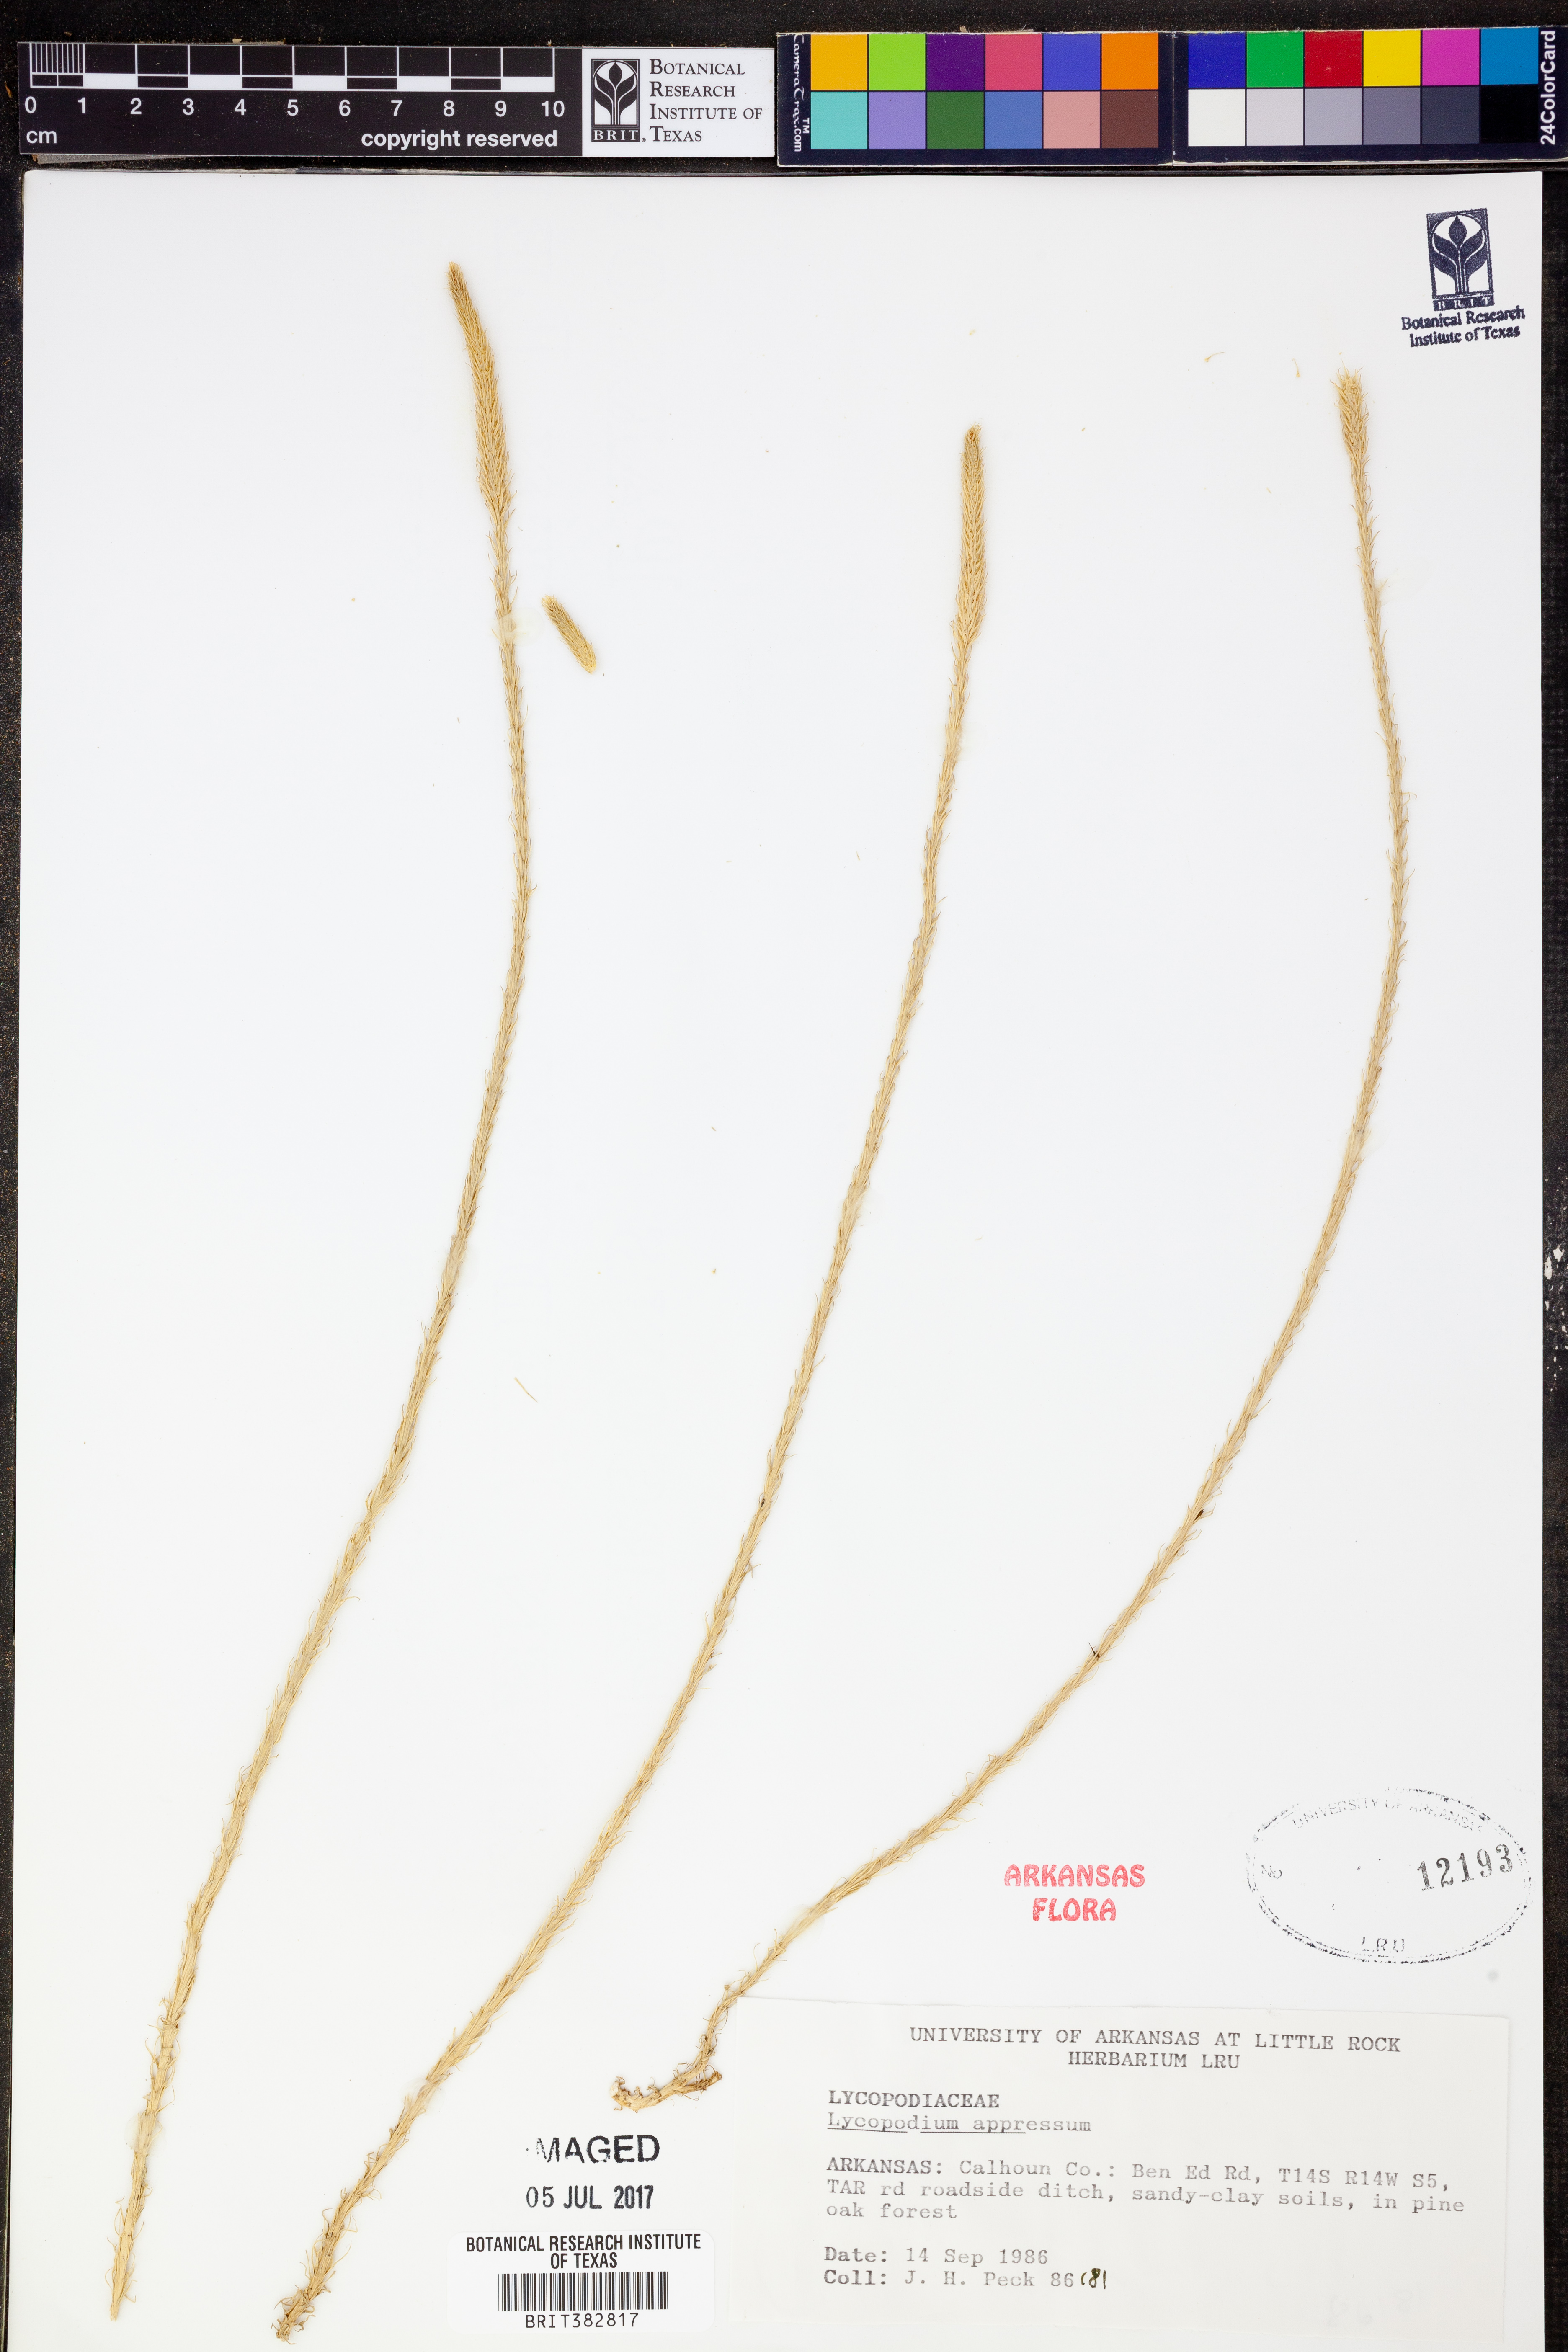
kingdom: Plantae
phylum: Tracheophyta
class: Lycopodiopsida
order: Lycopodiales
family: Lycopodiaceae
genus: Lycopodiella
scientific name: Lycopodiella appressa
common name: Appressed bog clubmoss
